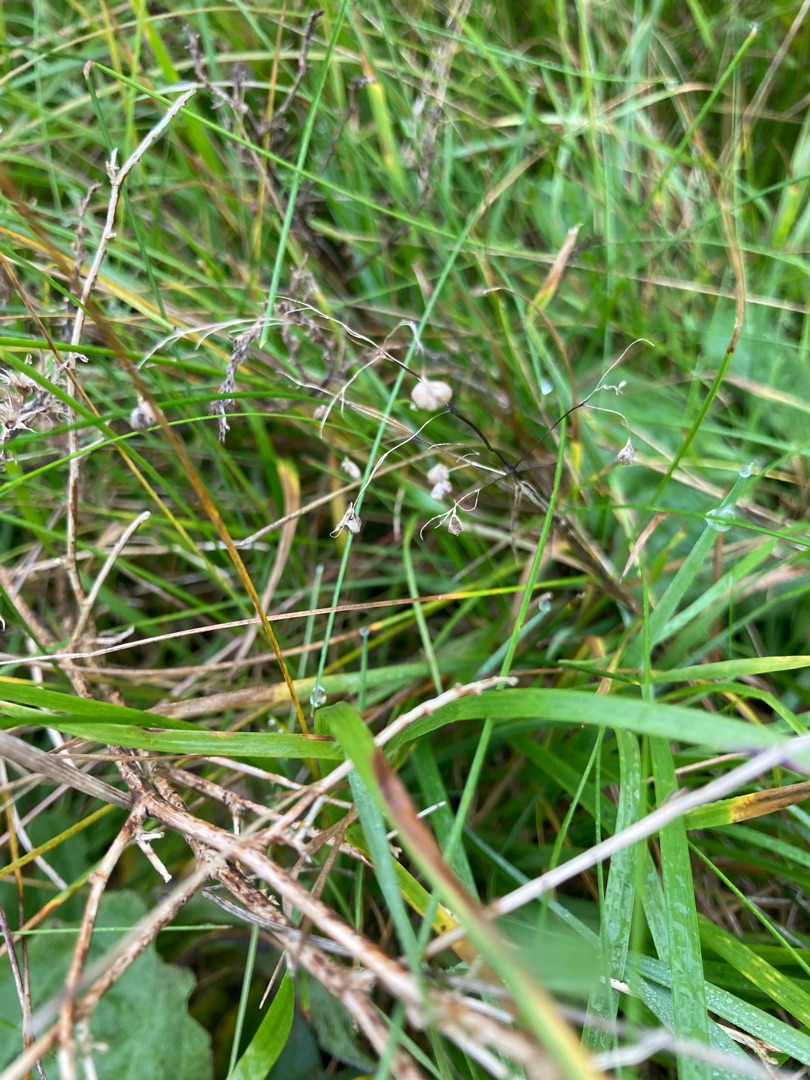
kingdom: Plantae
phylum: Tracheophyta
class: Liliopsida
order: Poales
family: Poaceae
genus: Briza
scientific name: Briza media
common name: Hjertegræs
